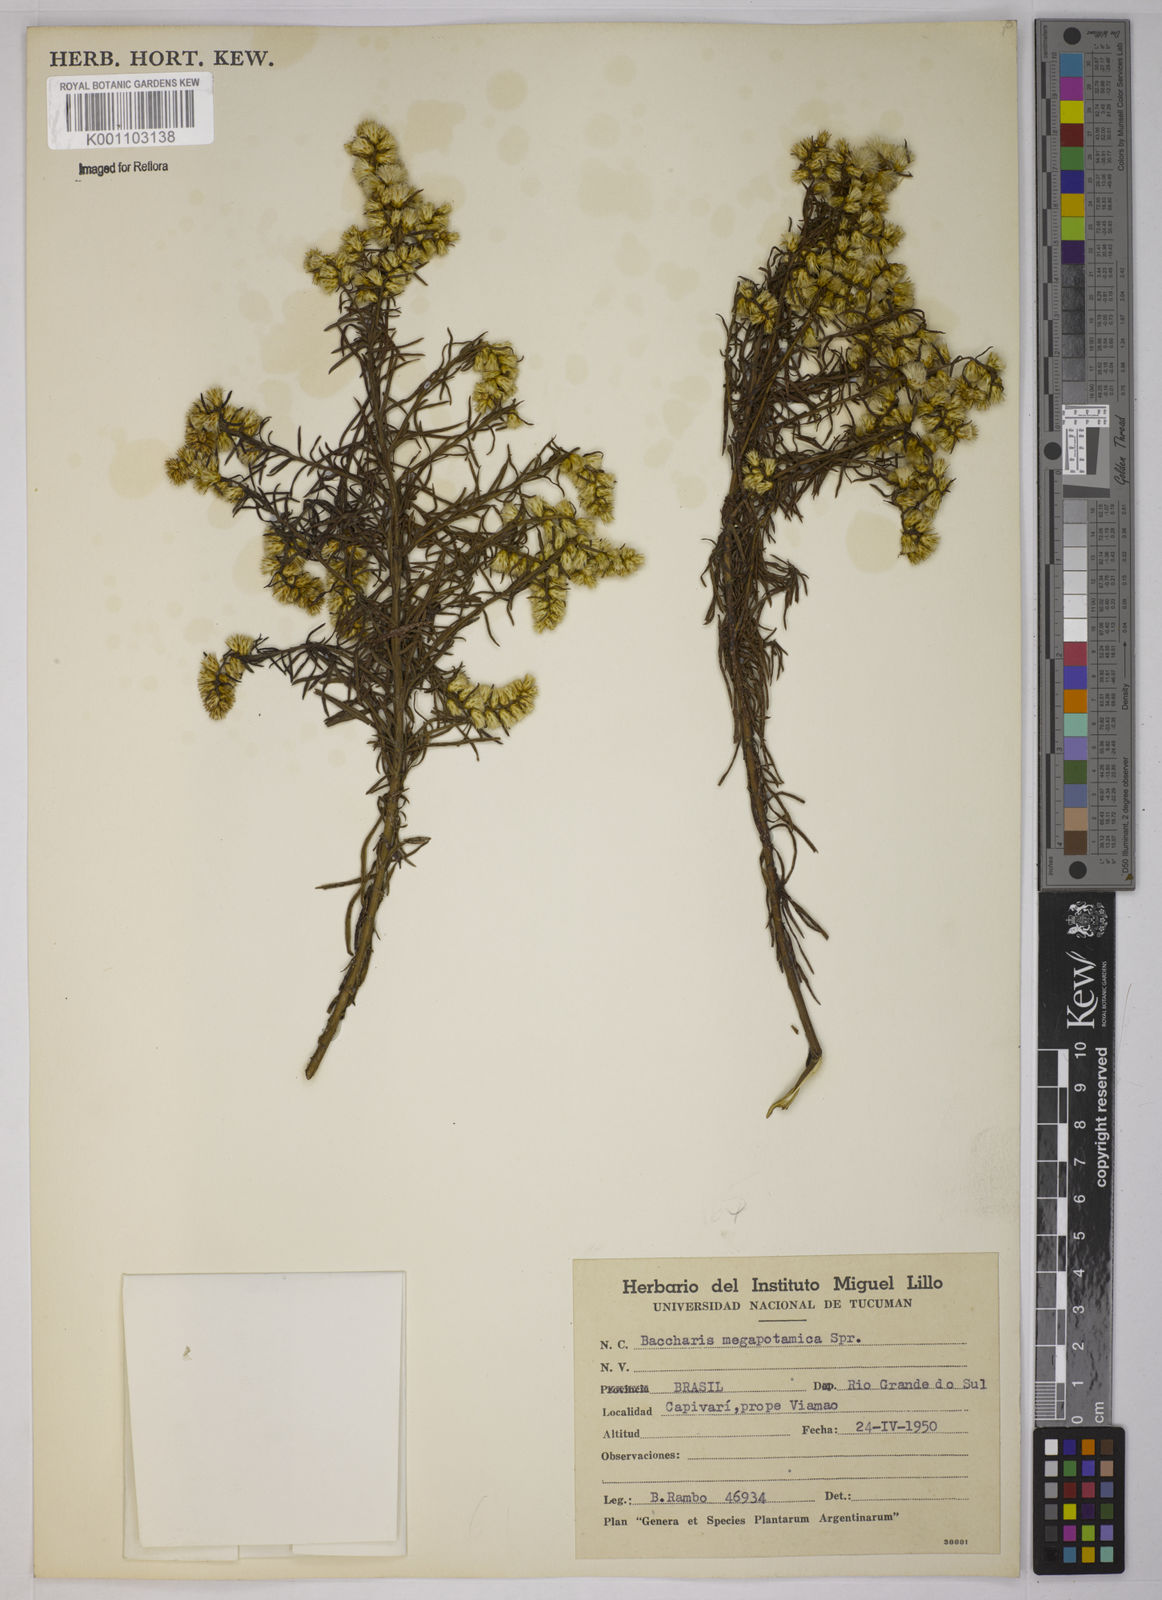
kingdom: Plantae
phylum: Tracheophyta
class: Magnoliopsida
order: Asterales
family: Asteraceae
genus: Baccharis
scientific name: Baccharis megapotamica
